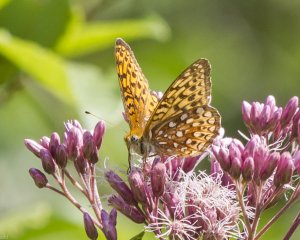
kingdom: Animalia
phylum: Arthropoda
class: Insecta
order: Lepidoptera
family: Nymphalidae
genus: Speyeria
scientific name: Speyeria atlantis
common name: Atlantis Fritillary
